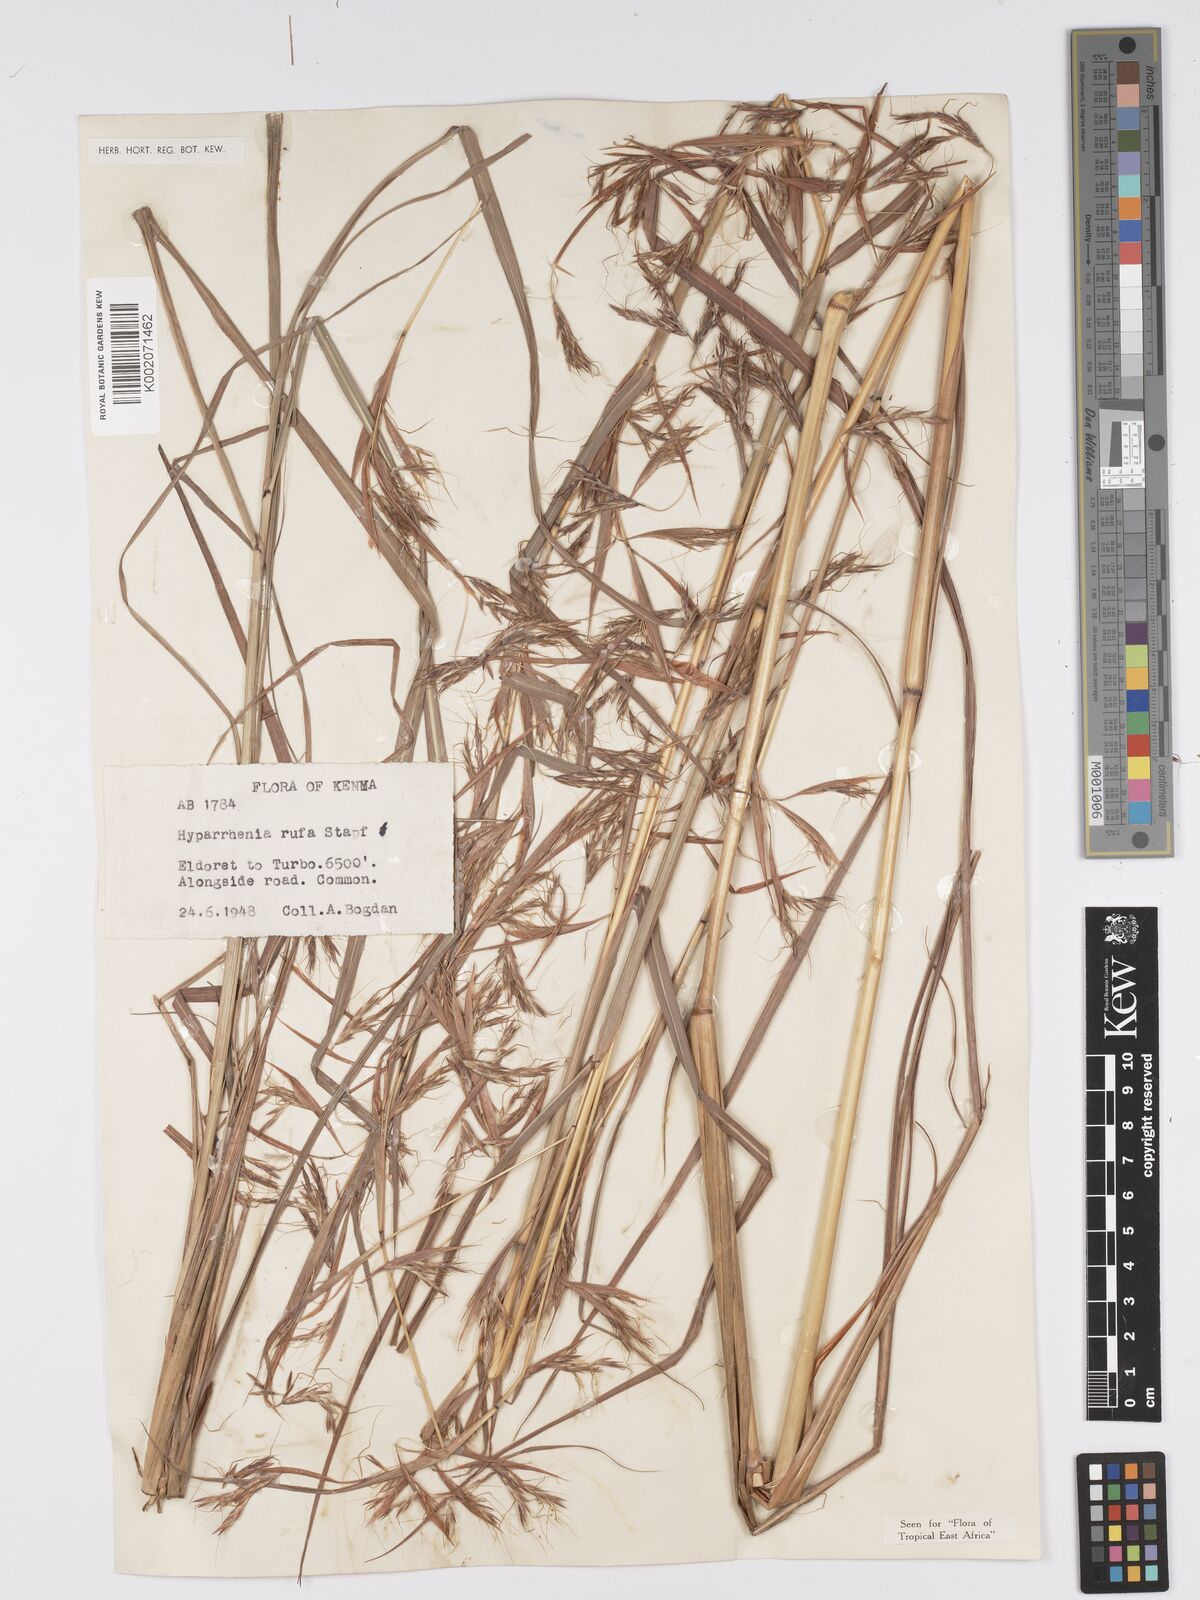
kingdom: Plantae
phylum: Tracheophyta
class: Liliopsida
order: Poales
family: Poaceae
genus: Hyparrhenia
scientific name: Hyparrhenia rufa
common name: Jaraguagrass
